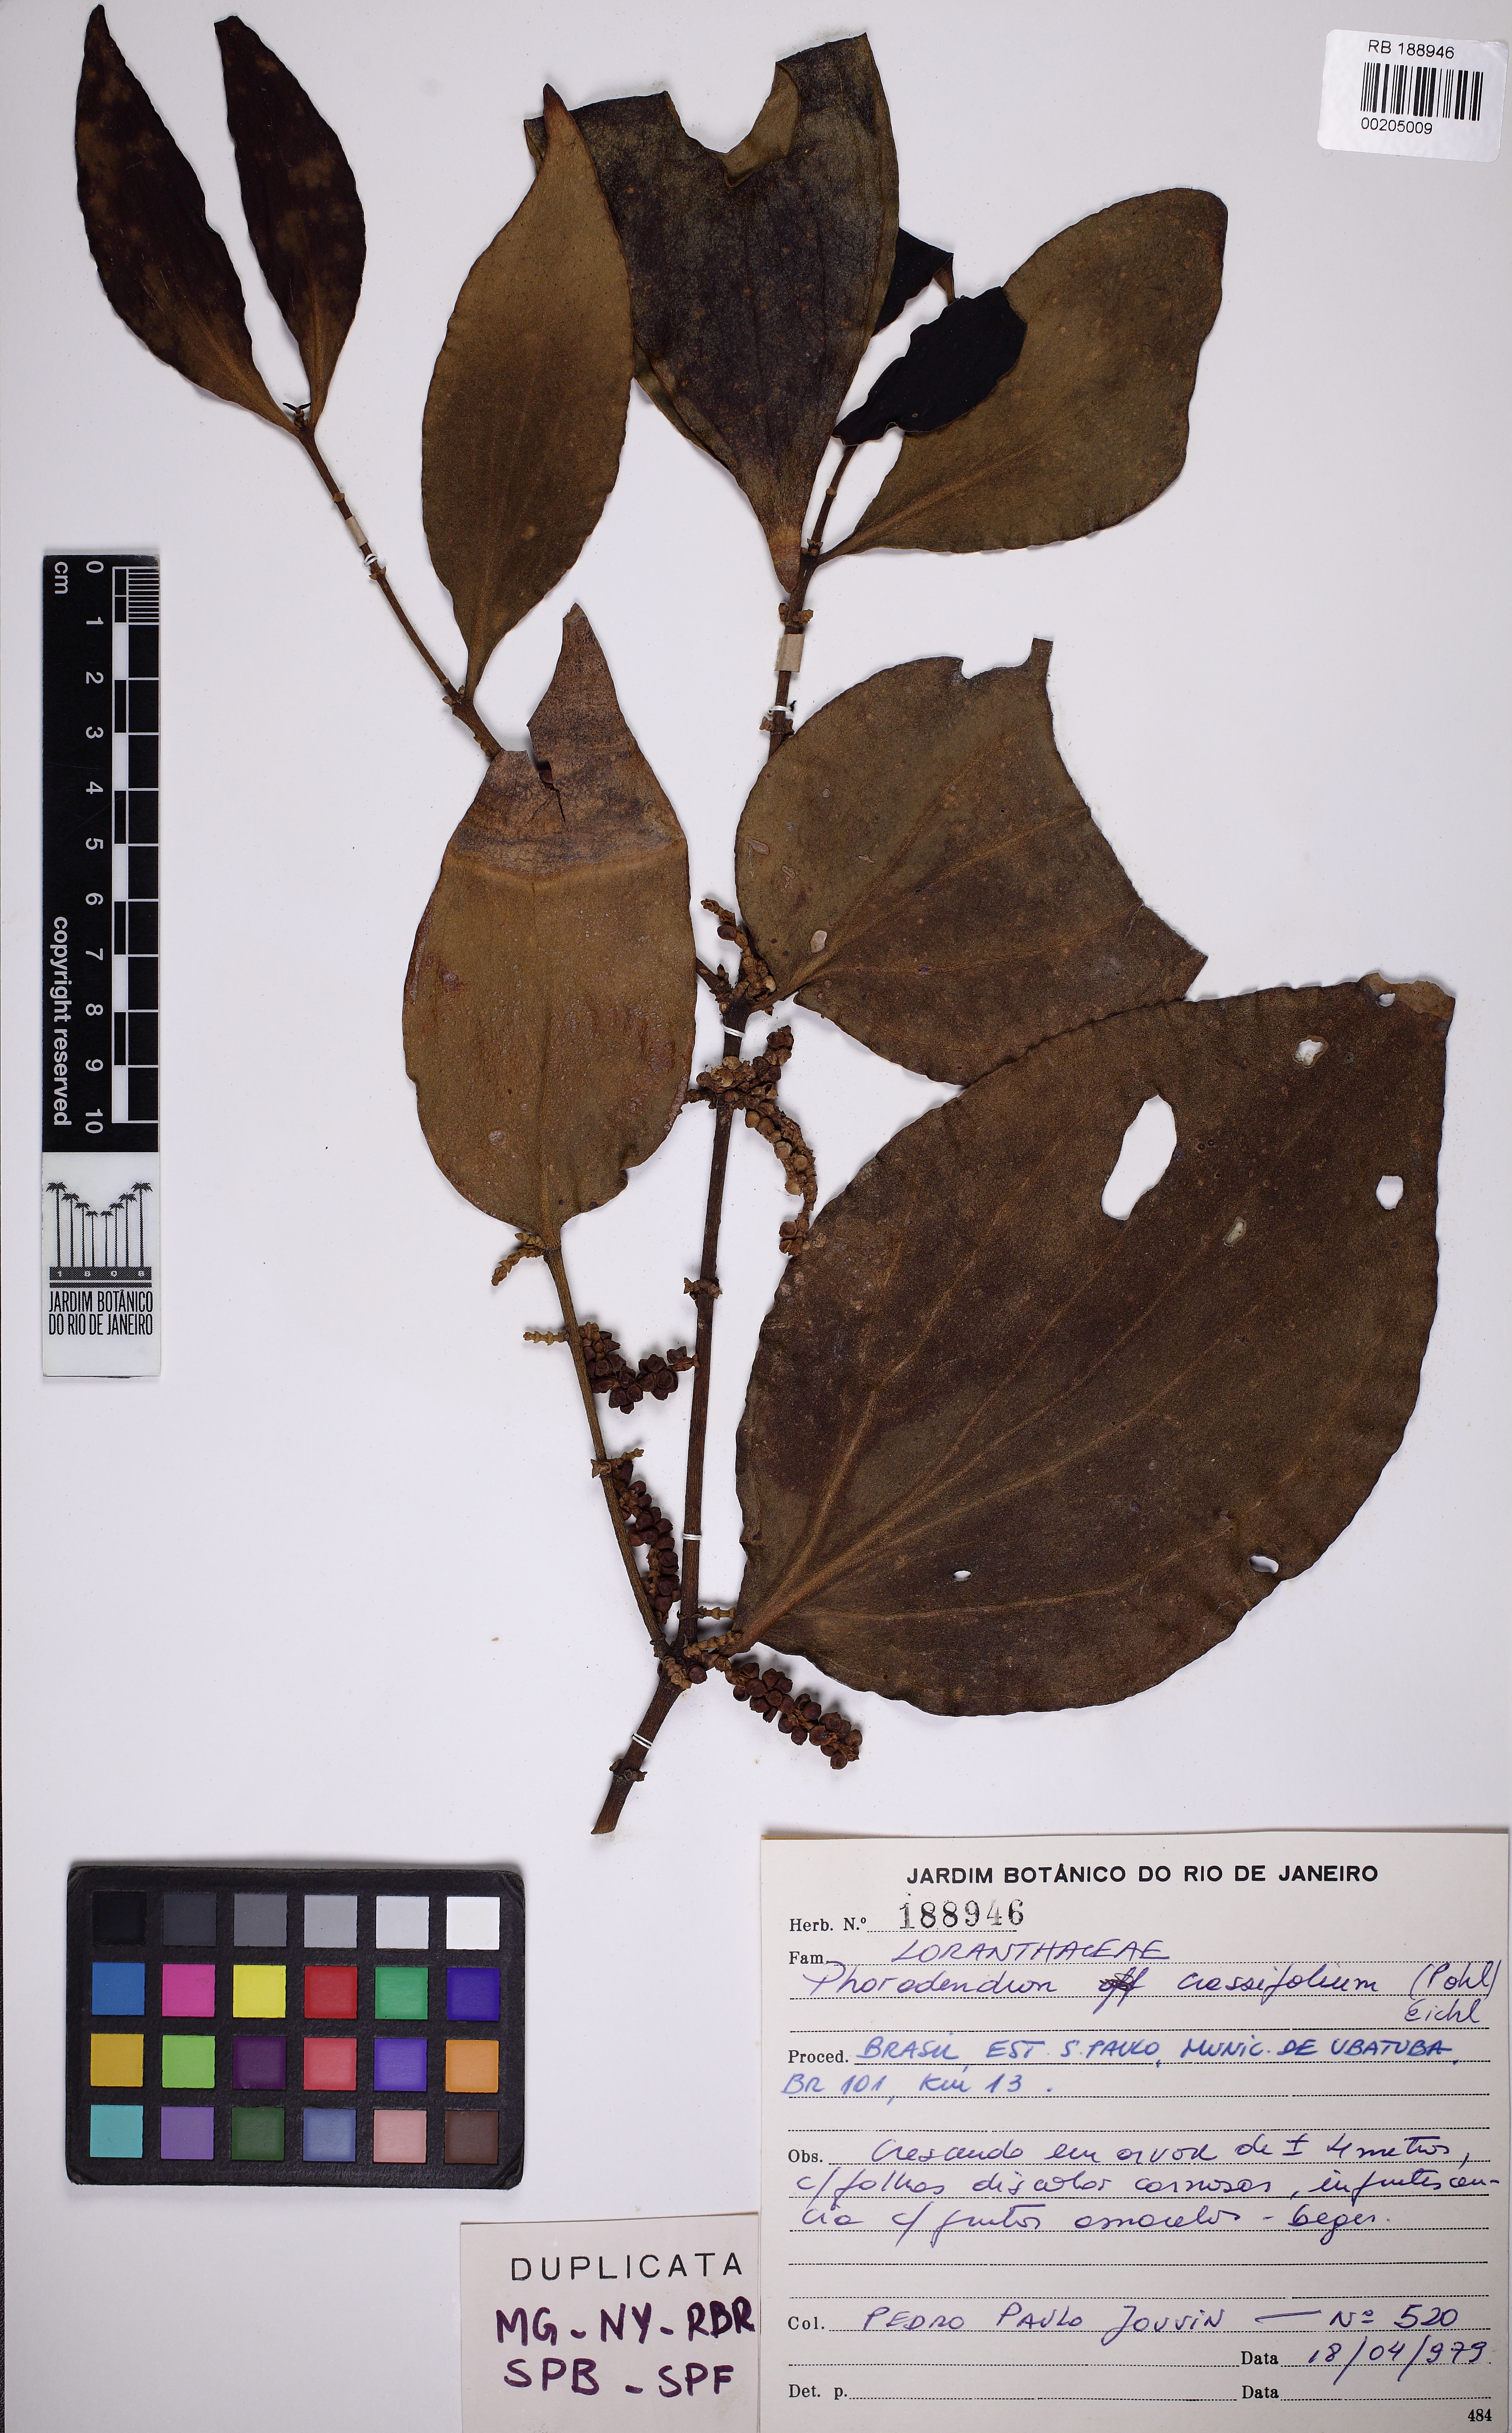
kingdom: Plantae
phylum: Tracheophyta
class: Magnoliopsida
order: Santalales
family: Viscaceae
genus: Phoradendron
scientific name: Phoradendron crassifolium
